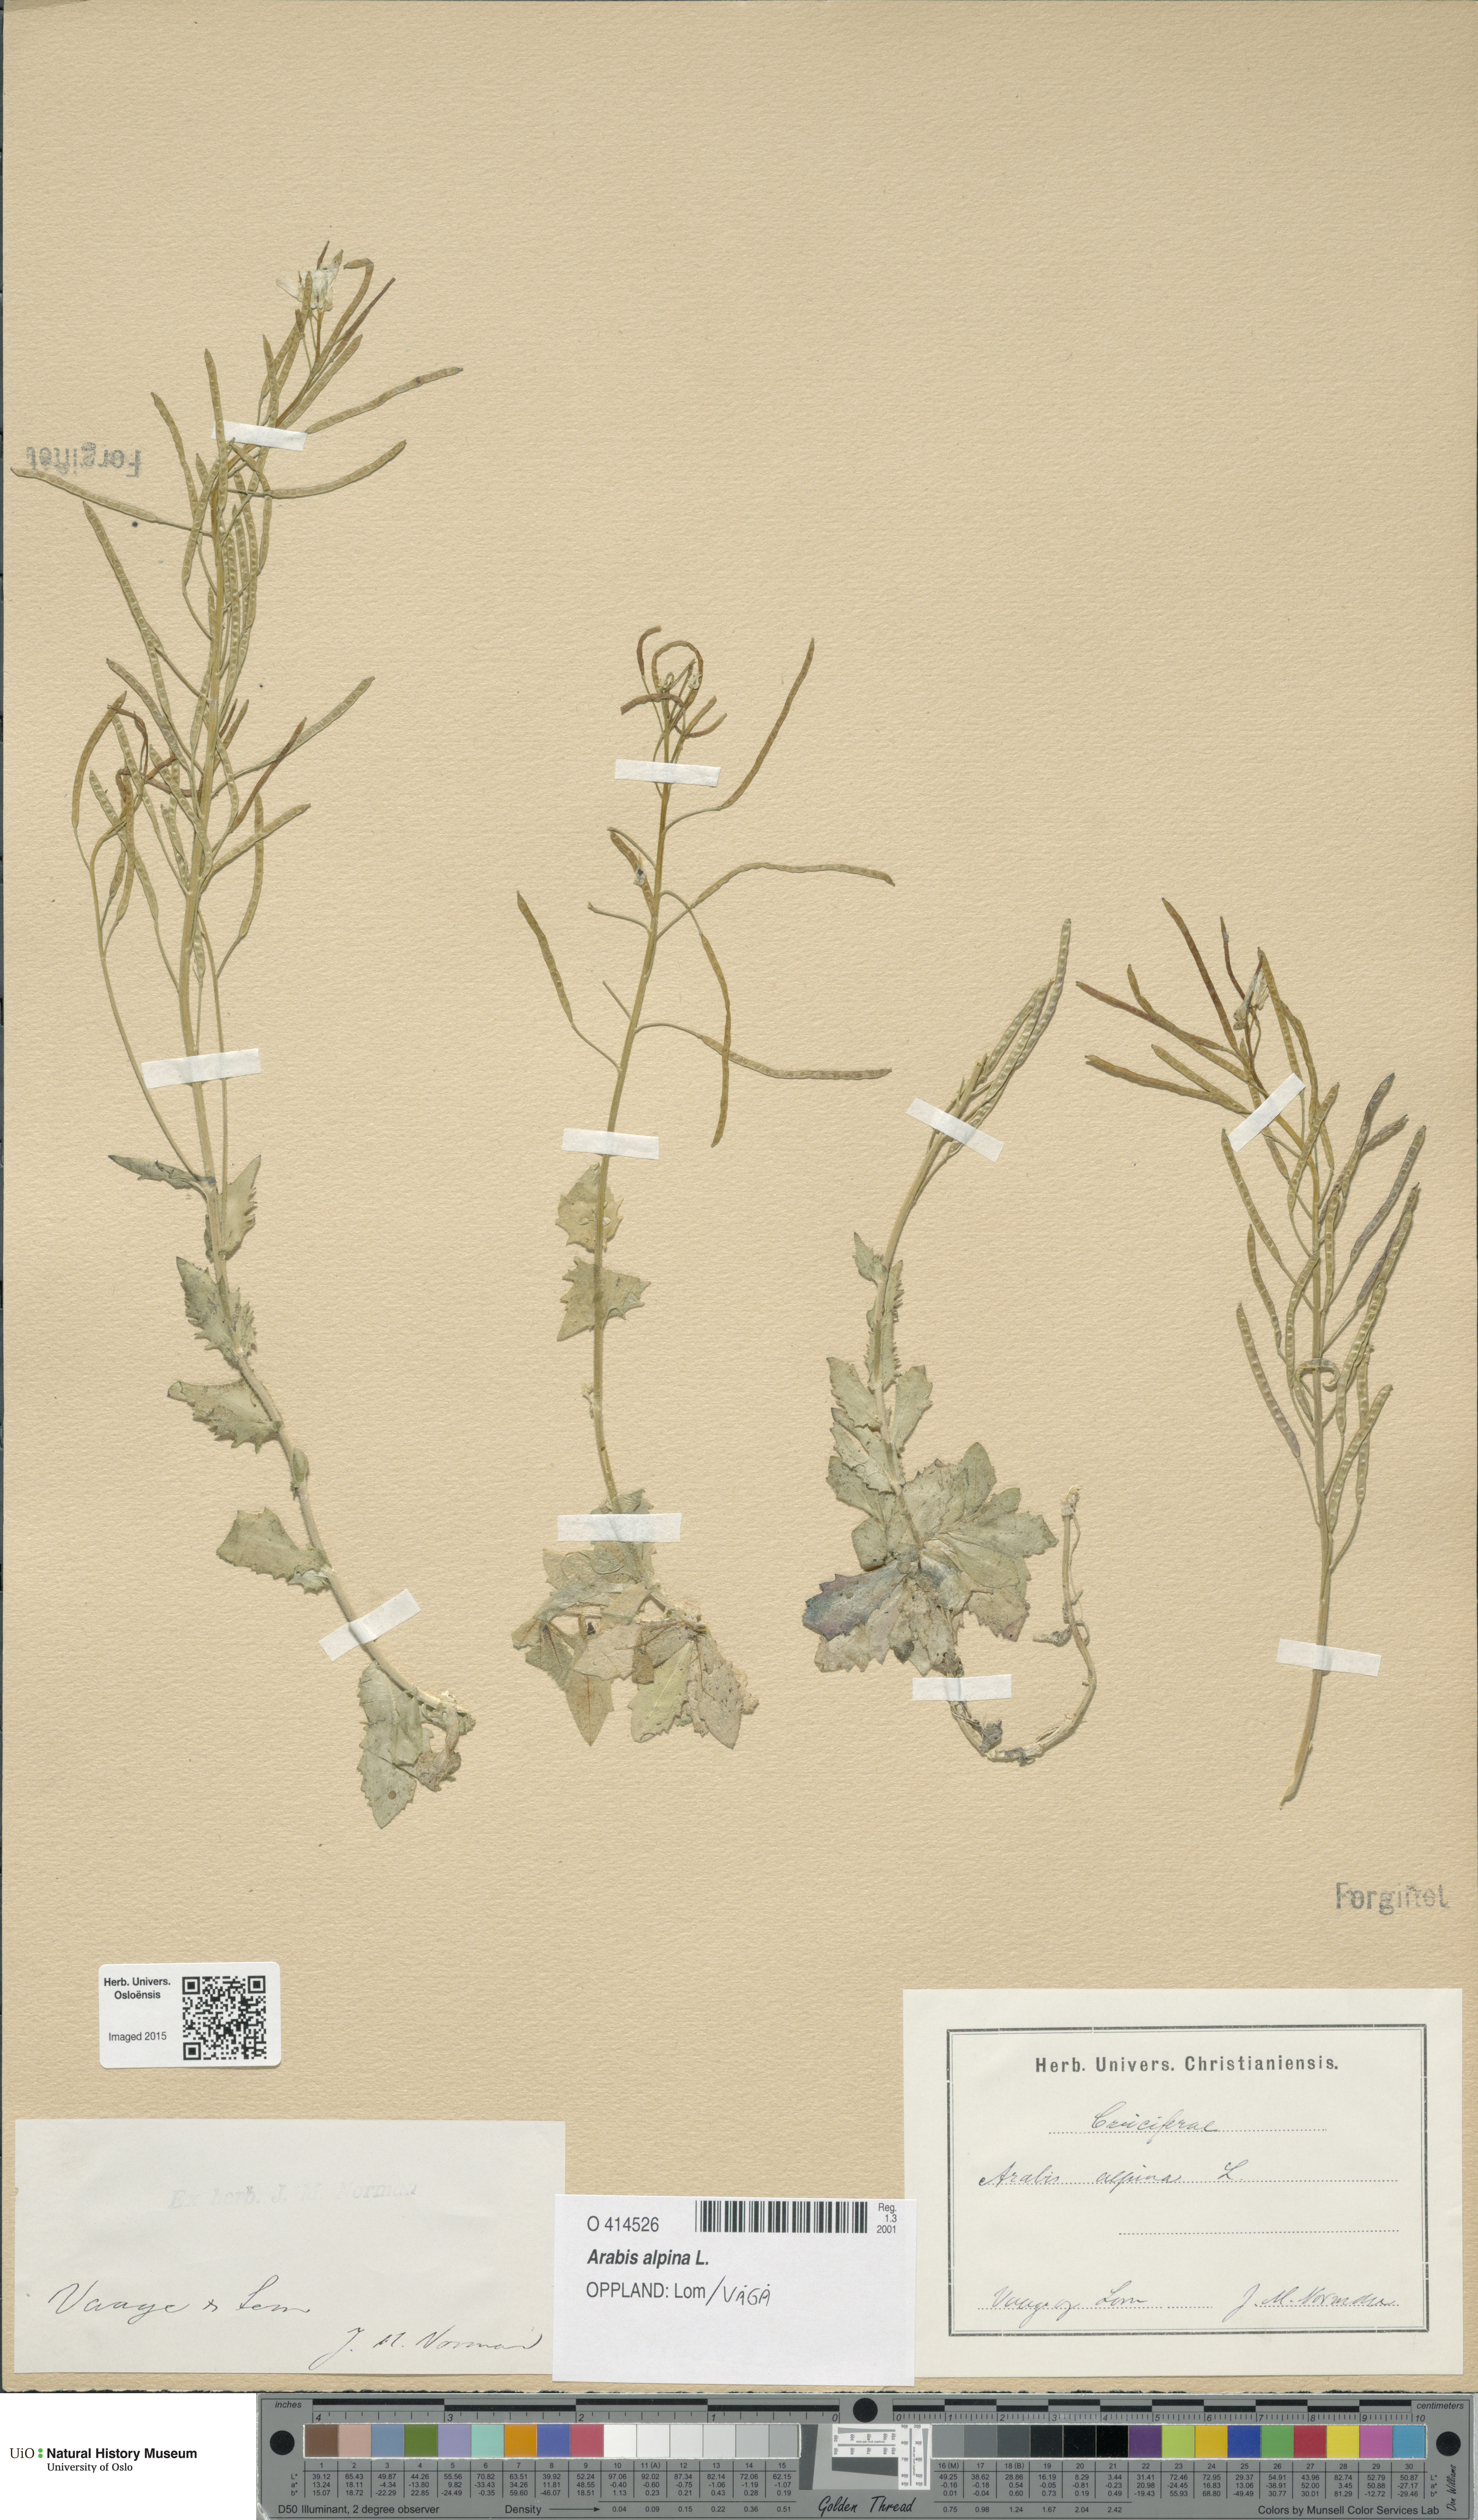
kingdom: Plantae
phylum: Tracheophyta
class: Magnoliopsida
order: Brassicales
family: Brassicaceae
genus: Arabis
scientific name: Arabis alpina
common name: Alpine rock-cress
